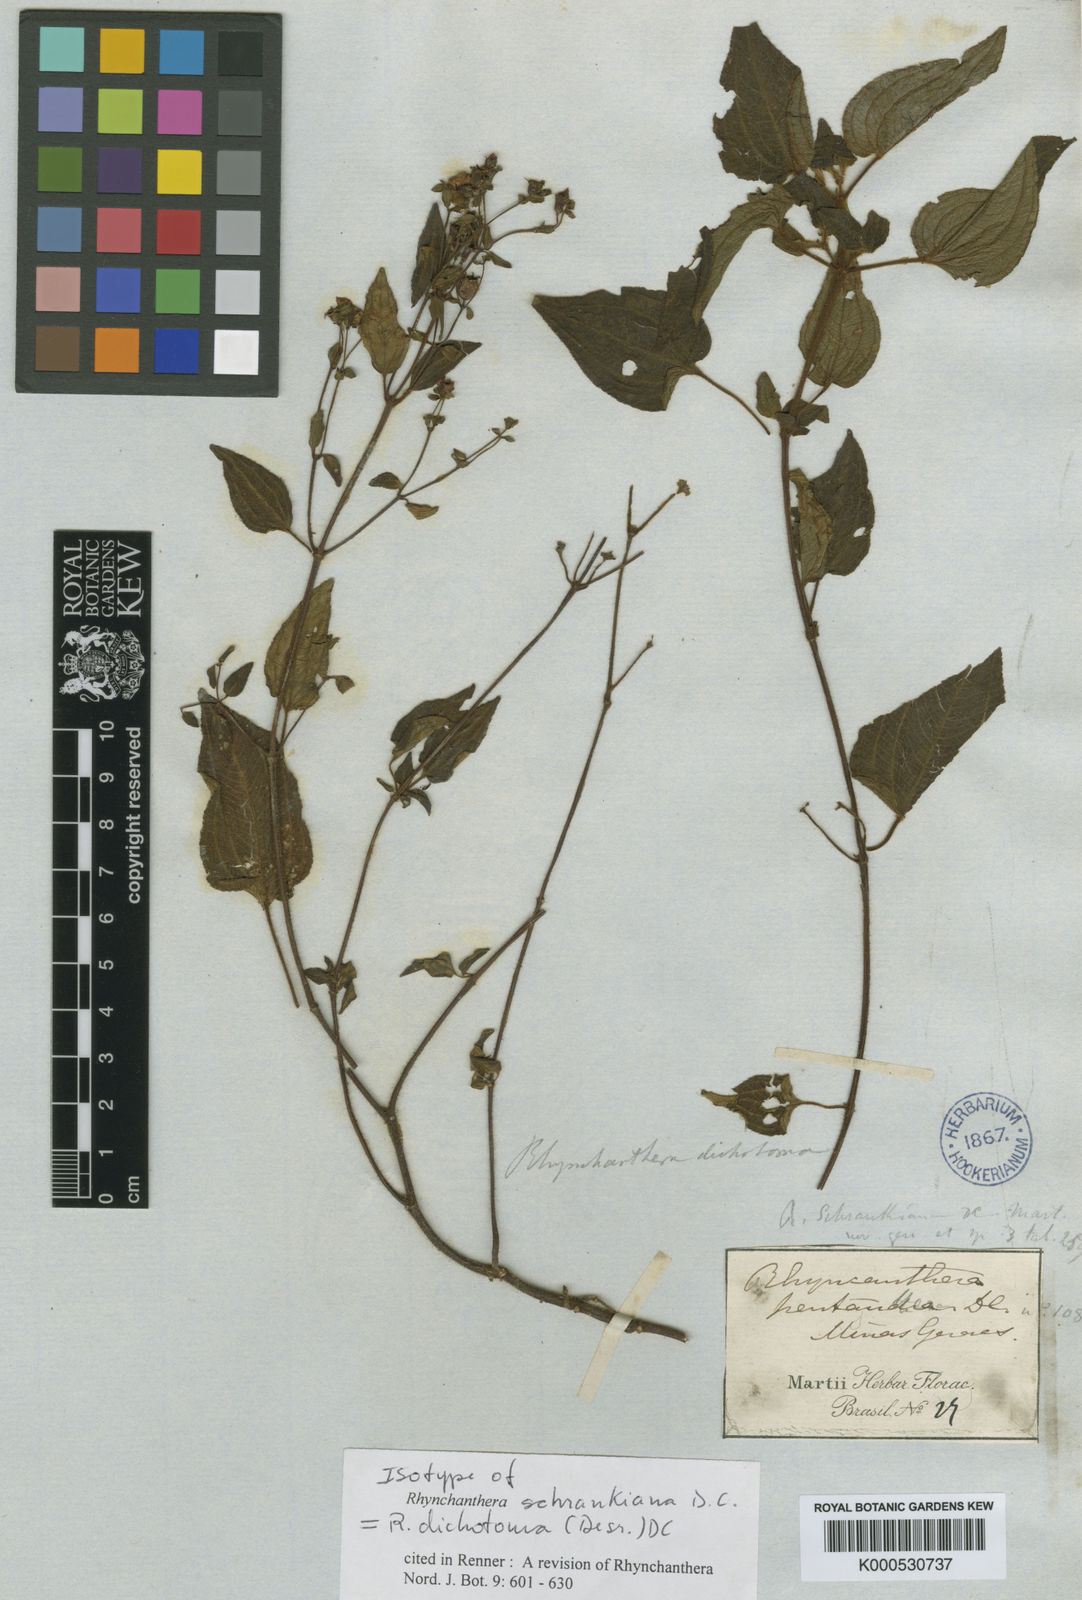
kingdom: Plantae
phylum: Tracheophyta
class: Magnoliopsida
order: Myrtales
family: Melastomataceae
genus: Rhynchanthera
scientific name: Rhynchanthera dichotoma
